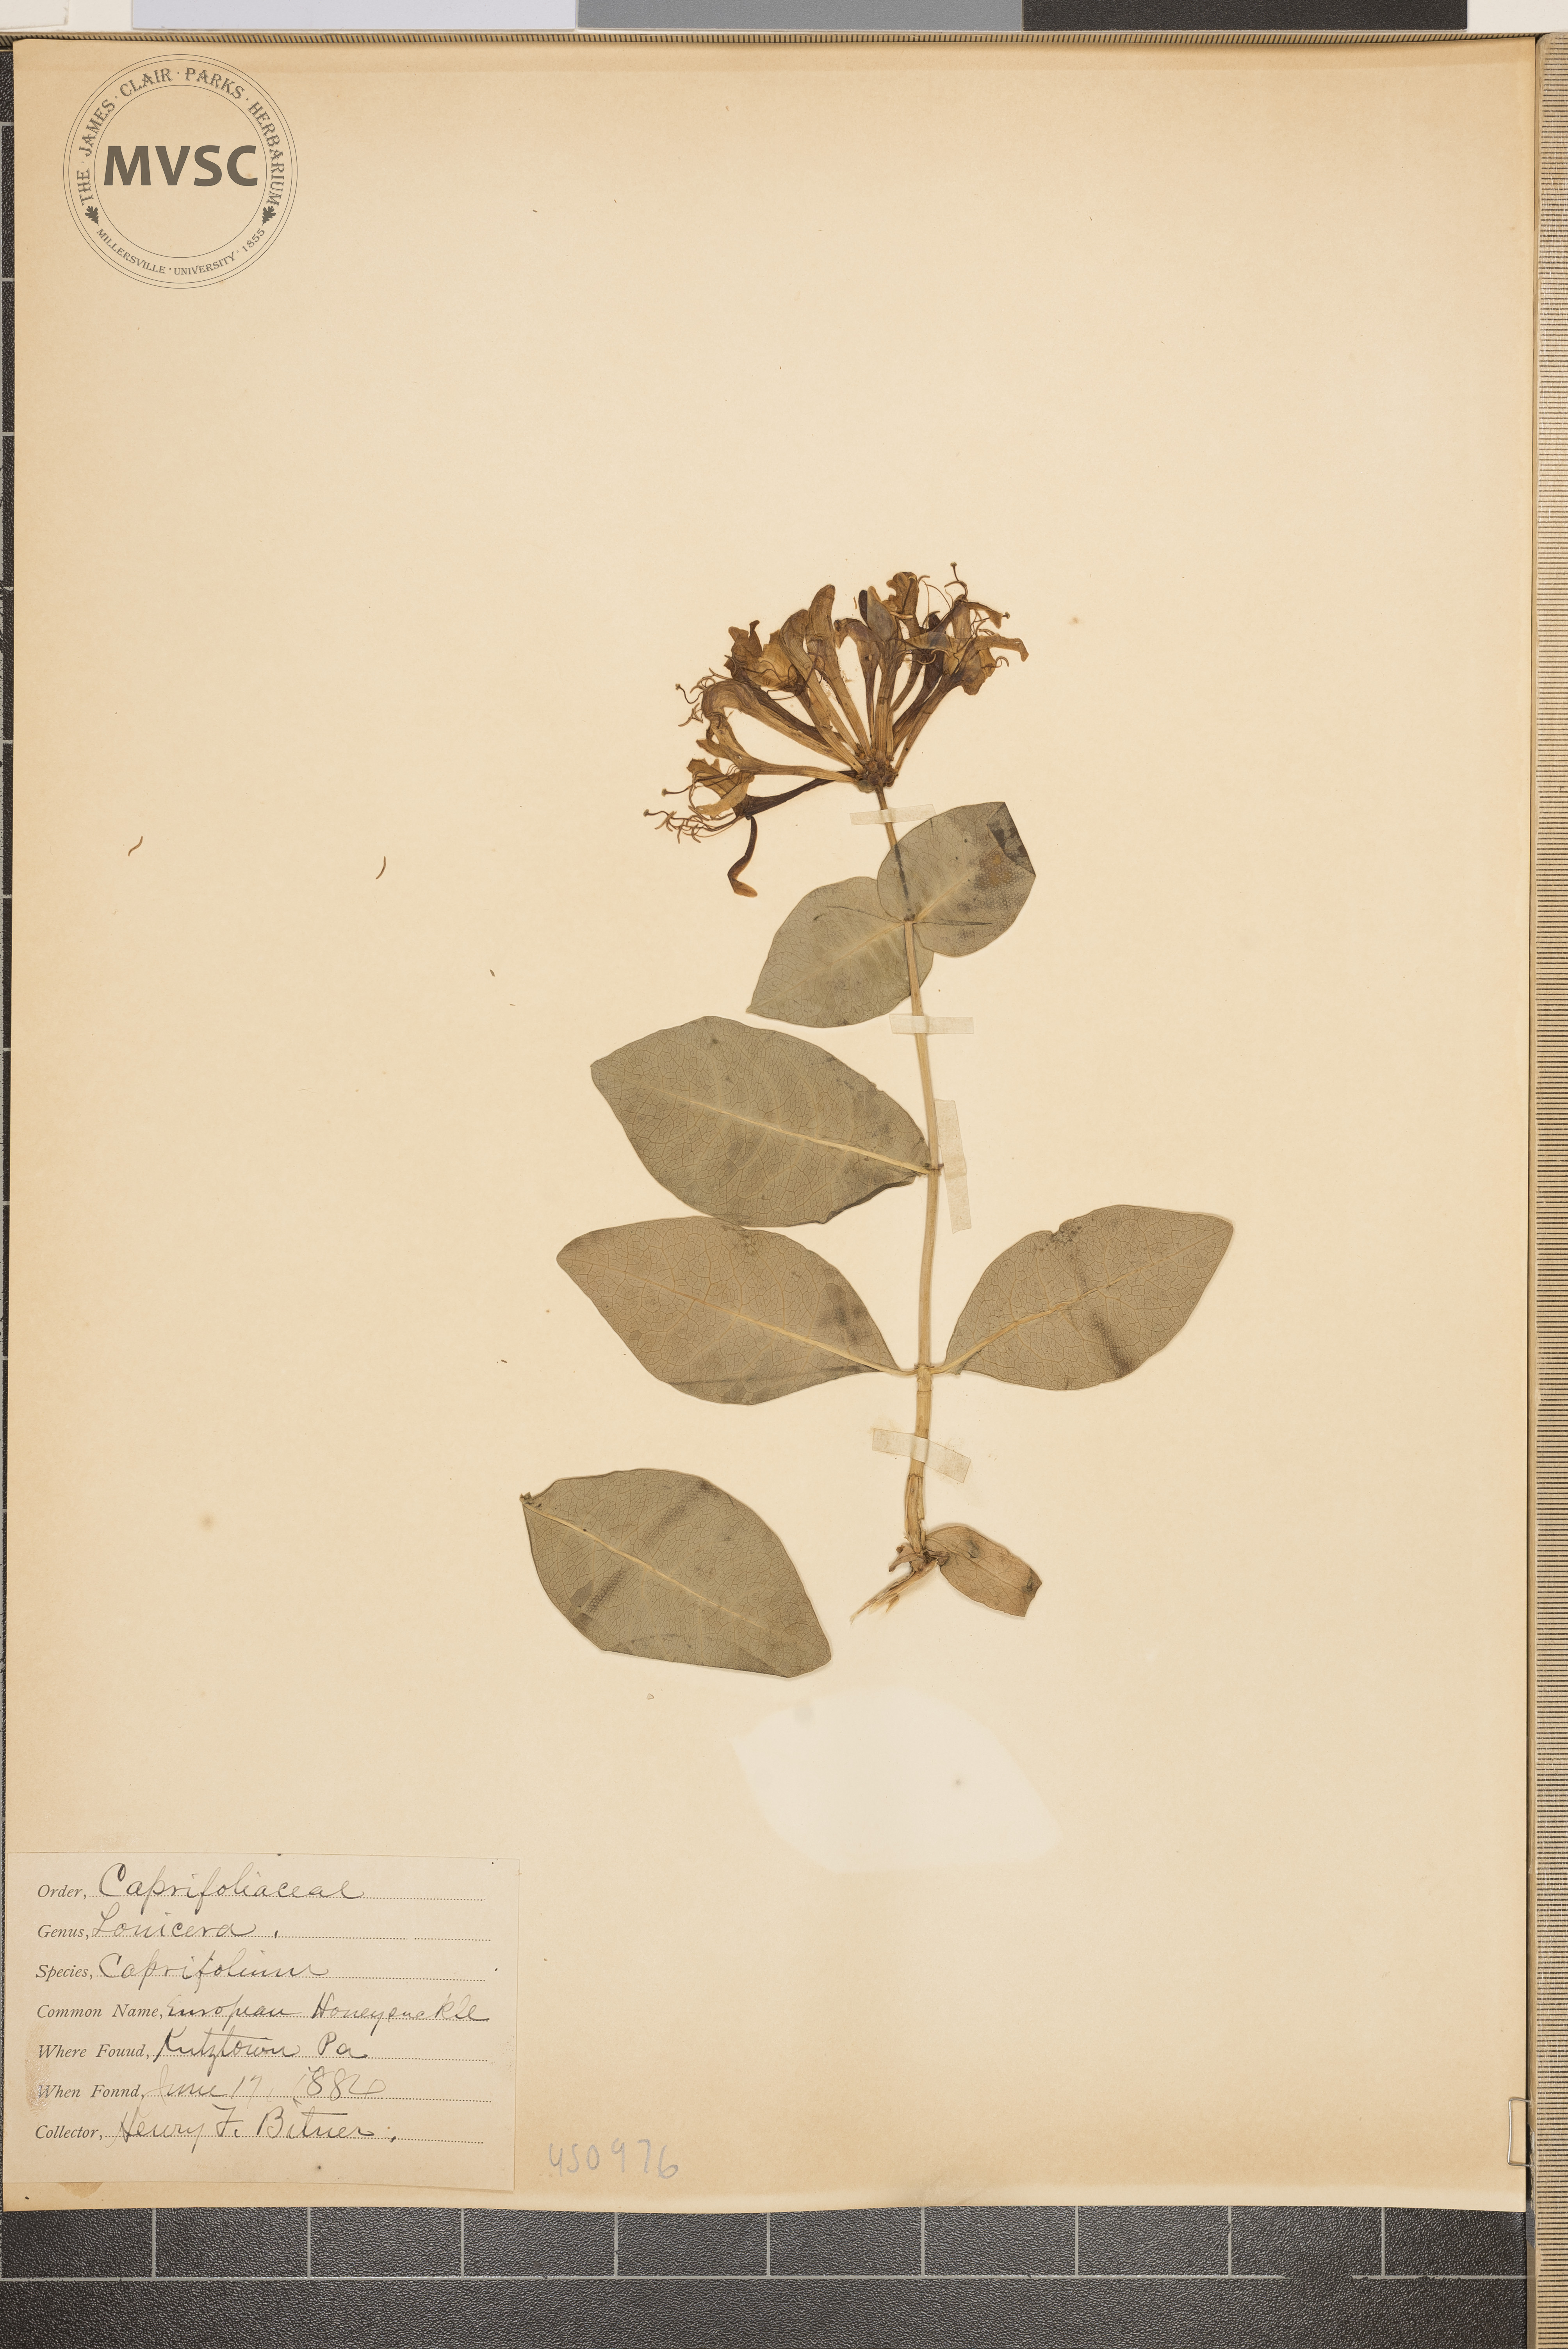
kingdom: Plantae
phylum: Tracheophyta
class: Magnoliopsida
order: Dipsacales
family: Caprifoliaceae
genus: Lonicera
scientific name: Lonicera caprifolium
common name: European honeysuckle
